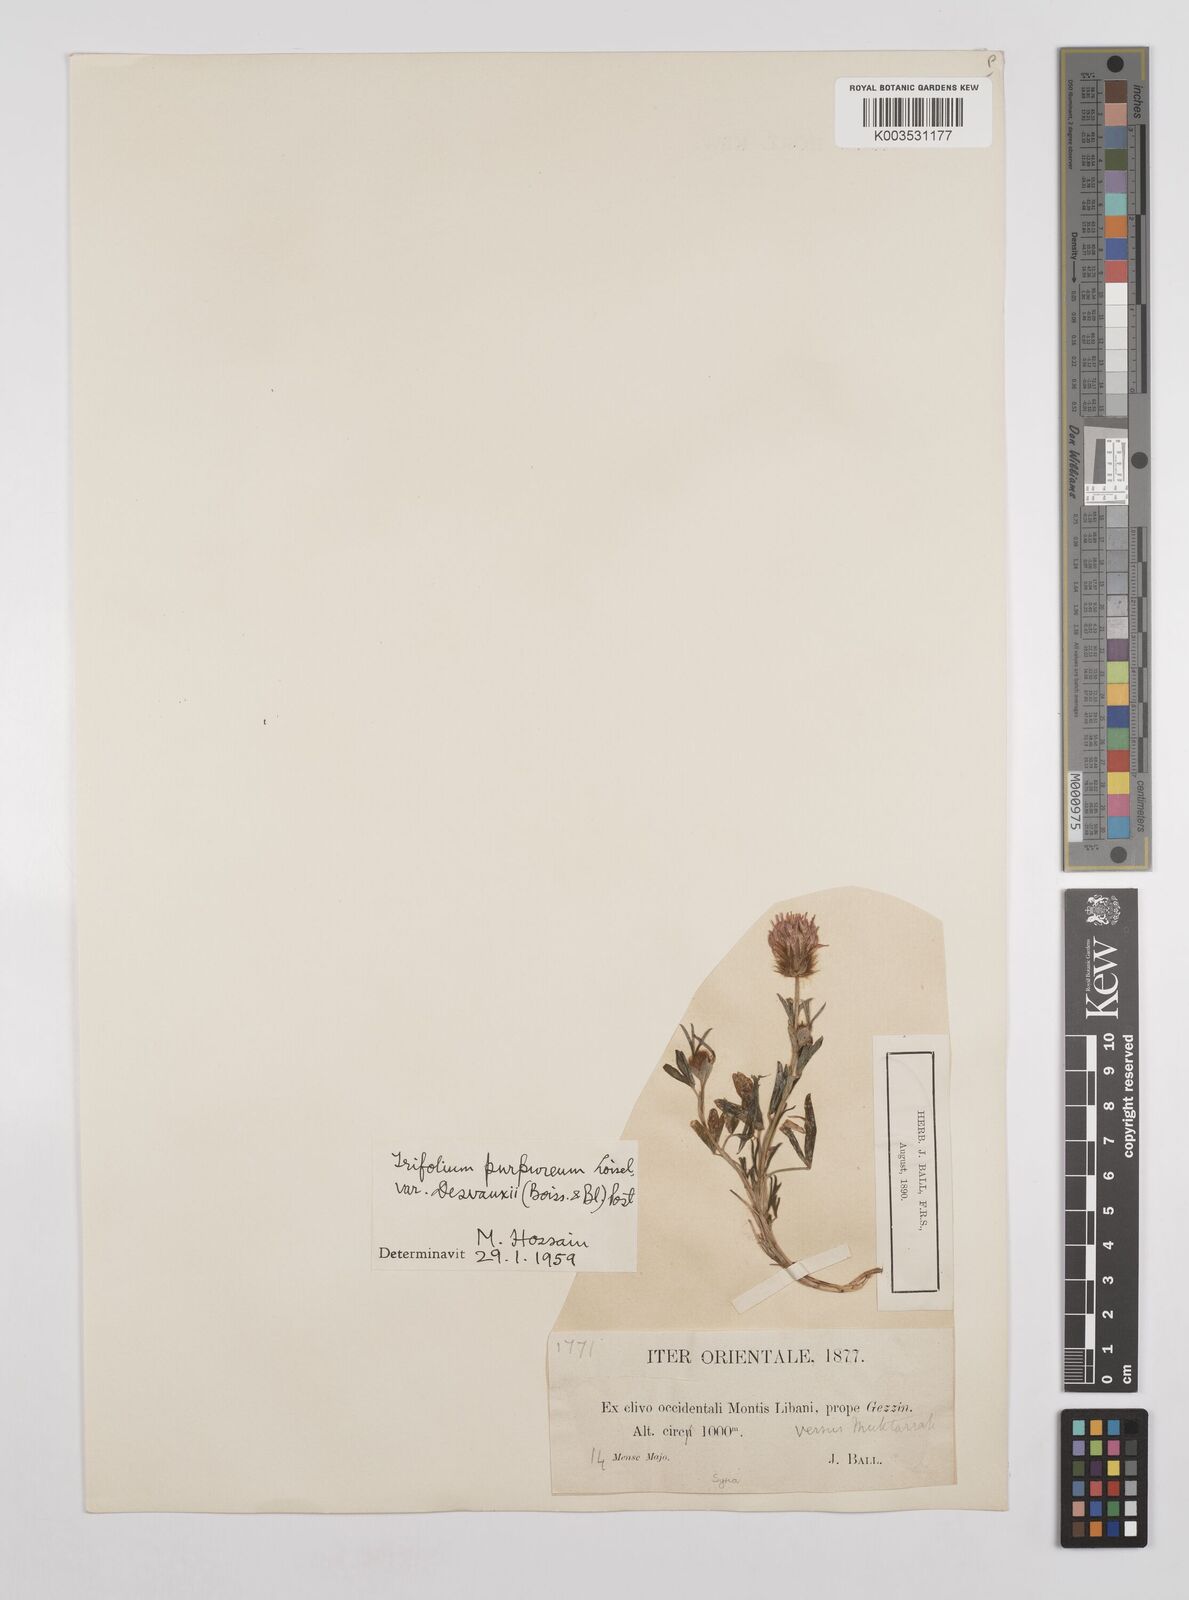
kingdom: Plantae
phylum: Tracheophyta
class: Magnoliopsida
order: Fabales
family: Fabaceae
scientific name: Fabaceae
